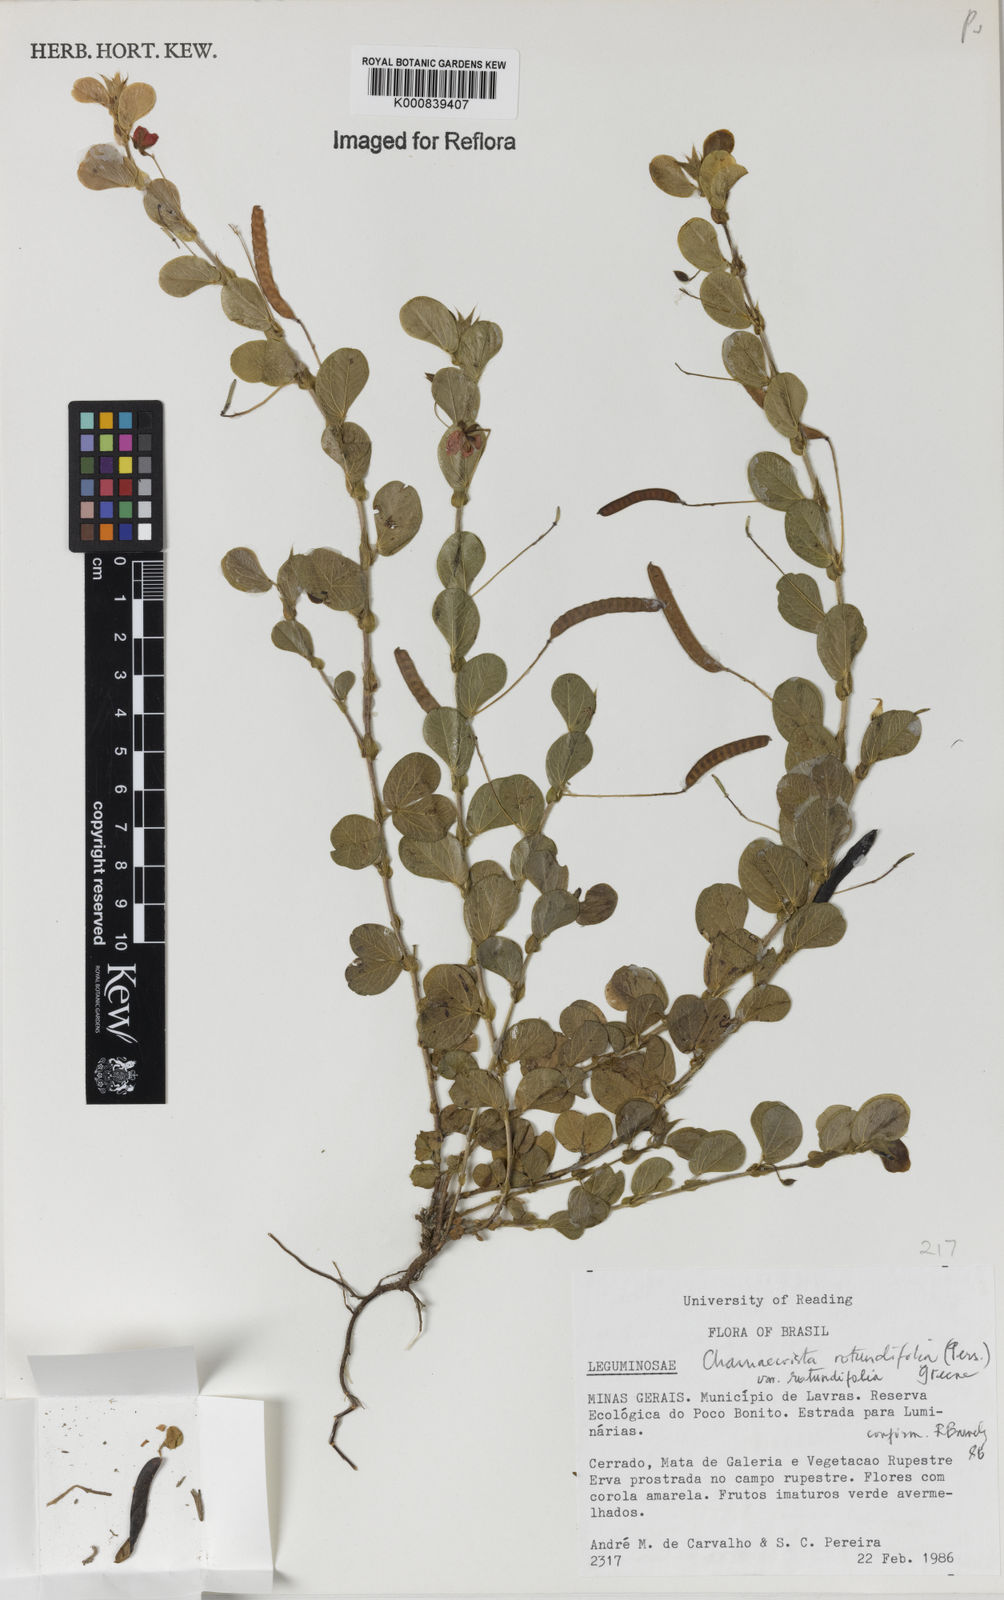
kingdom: Plantae
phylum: Tracheophyta
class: Magnoliopsida
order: Fabales
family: Fabaceae
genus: Chamaecrista
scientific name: Chamaecrista rotundifolia
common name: Round-leaf cassia
